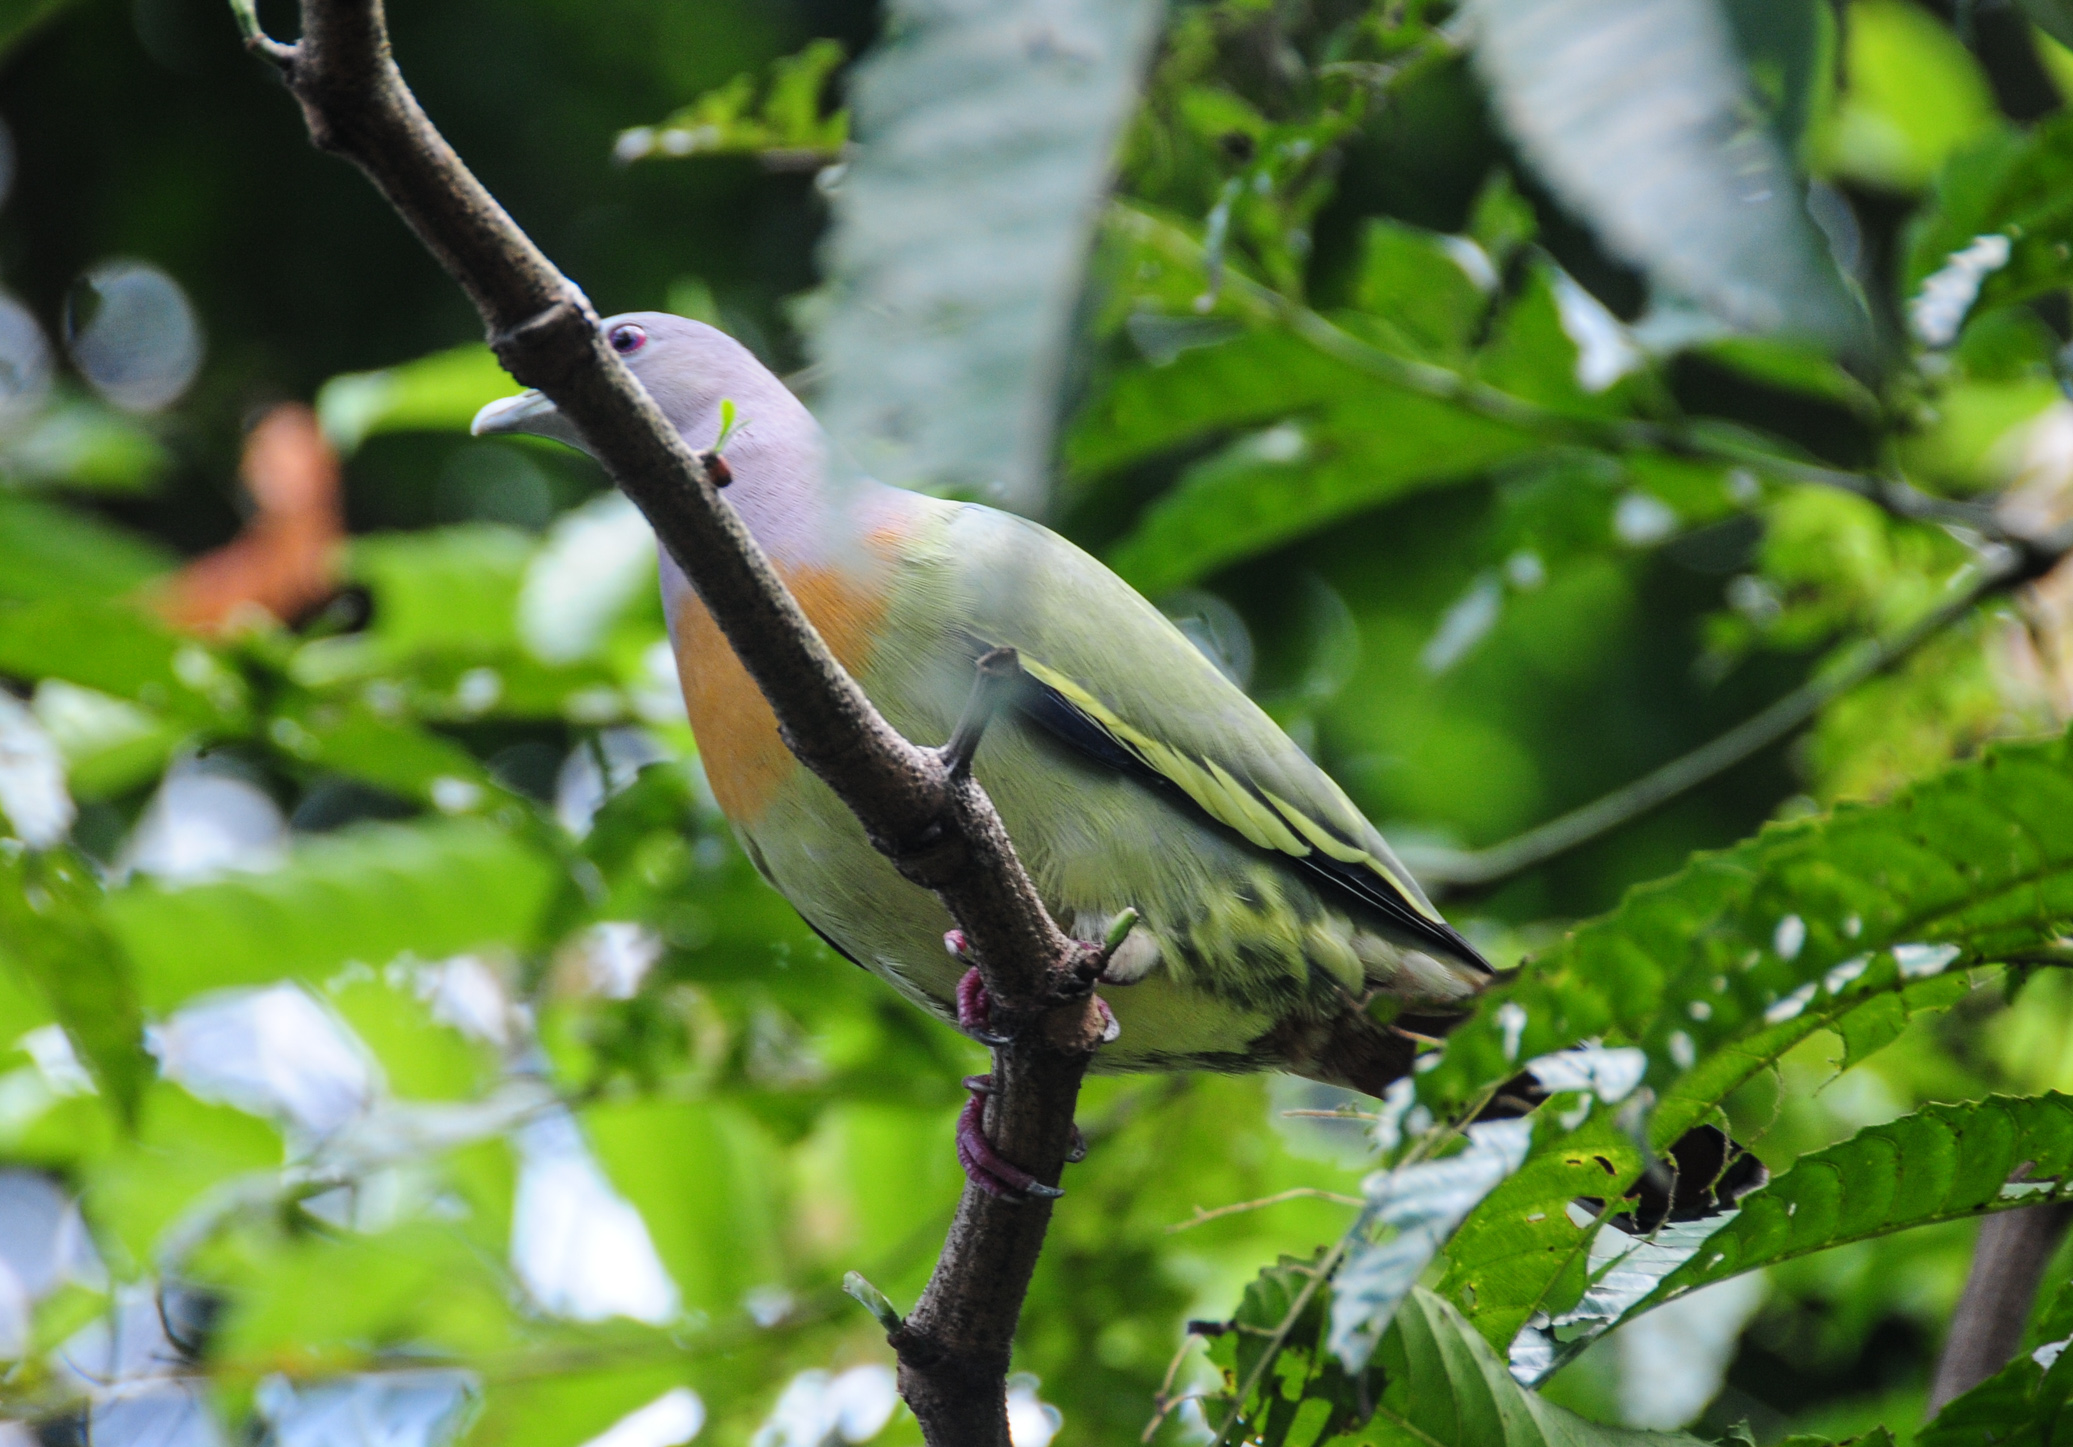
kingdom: Animalia
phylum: Chordata
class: Aves
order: Columbiformes
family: Columbidae
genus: Treron
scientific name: Treron vernans
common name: Pink-necked green pigeon
